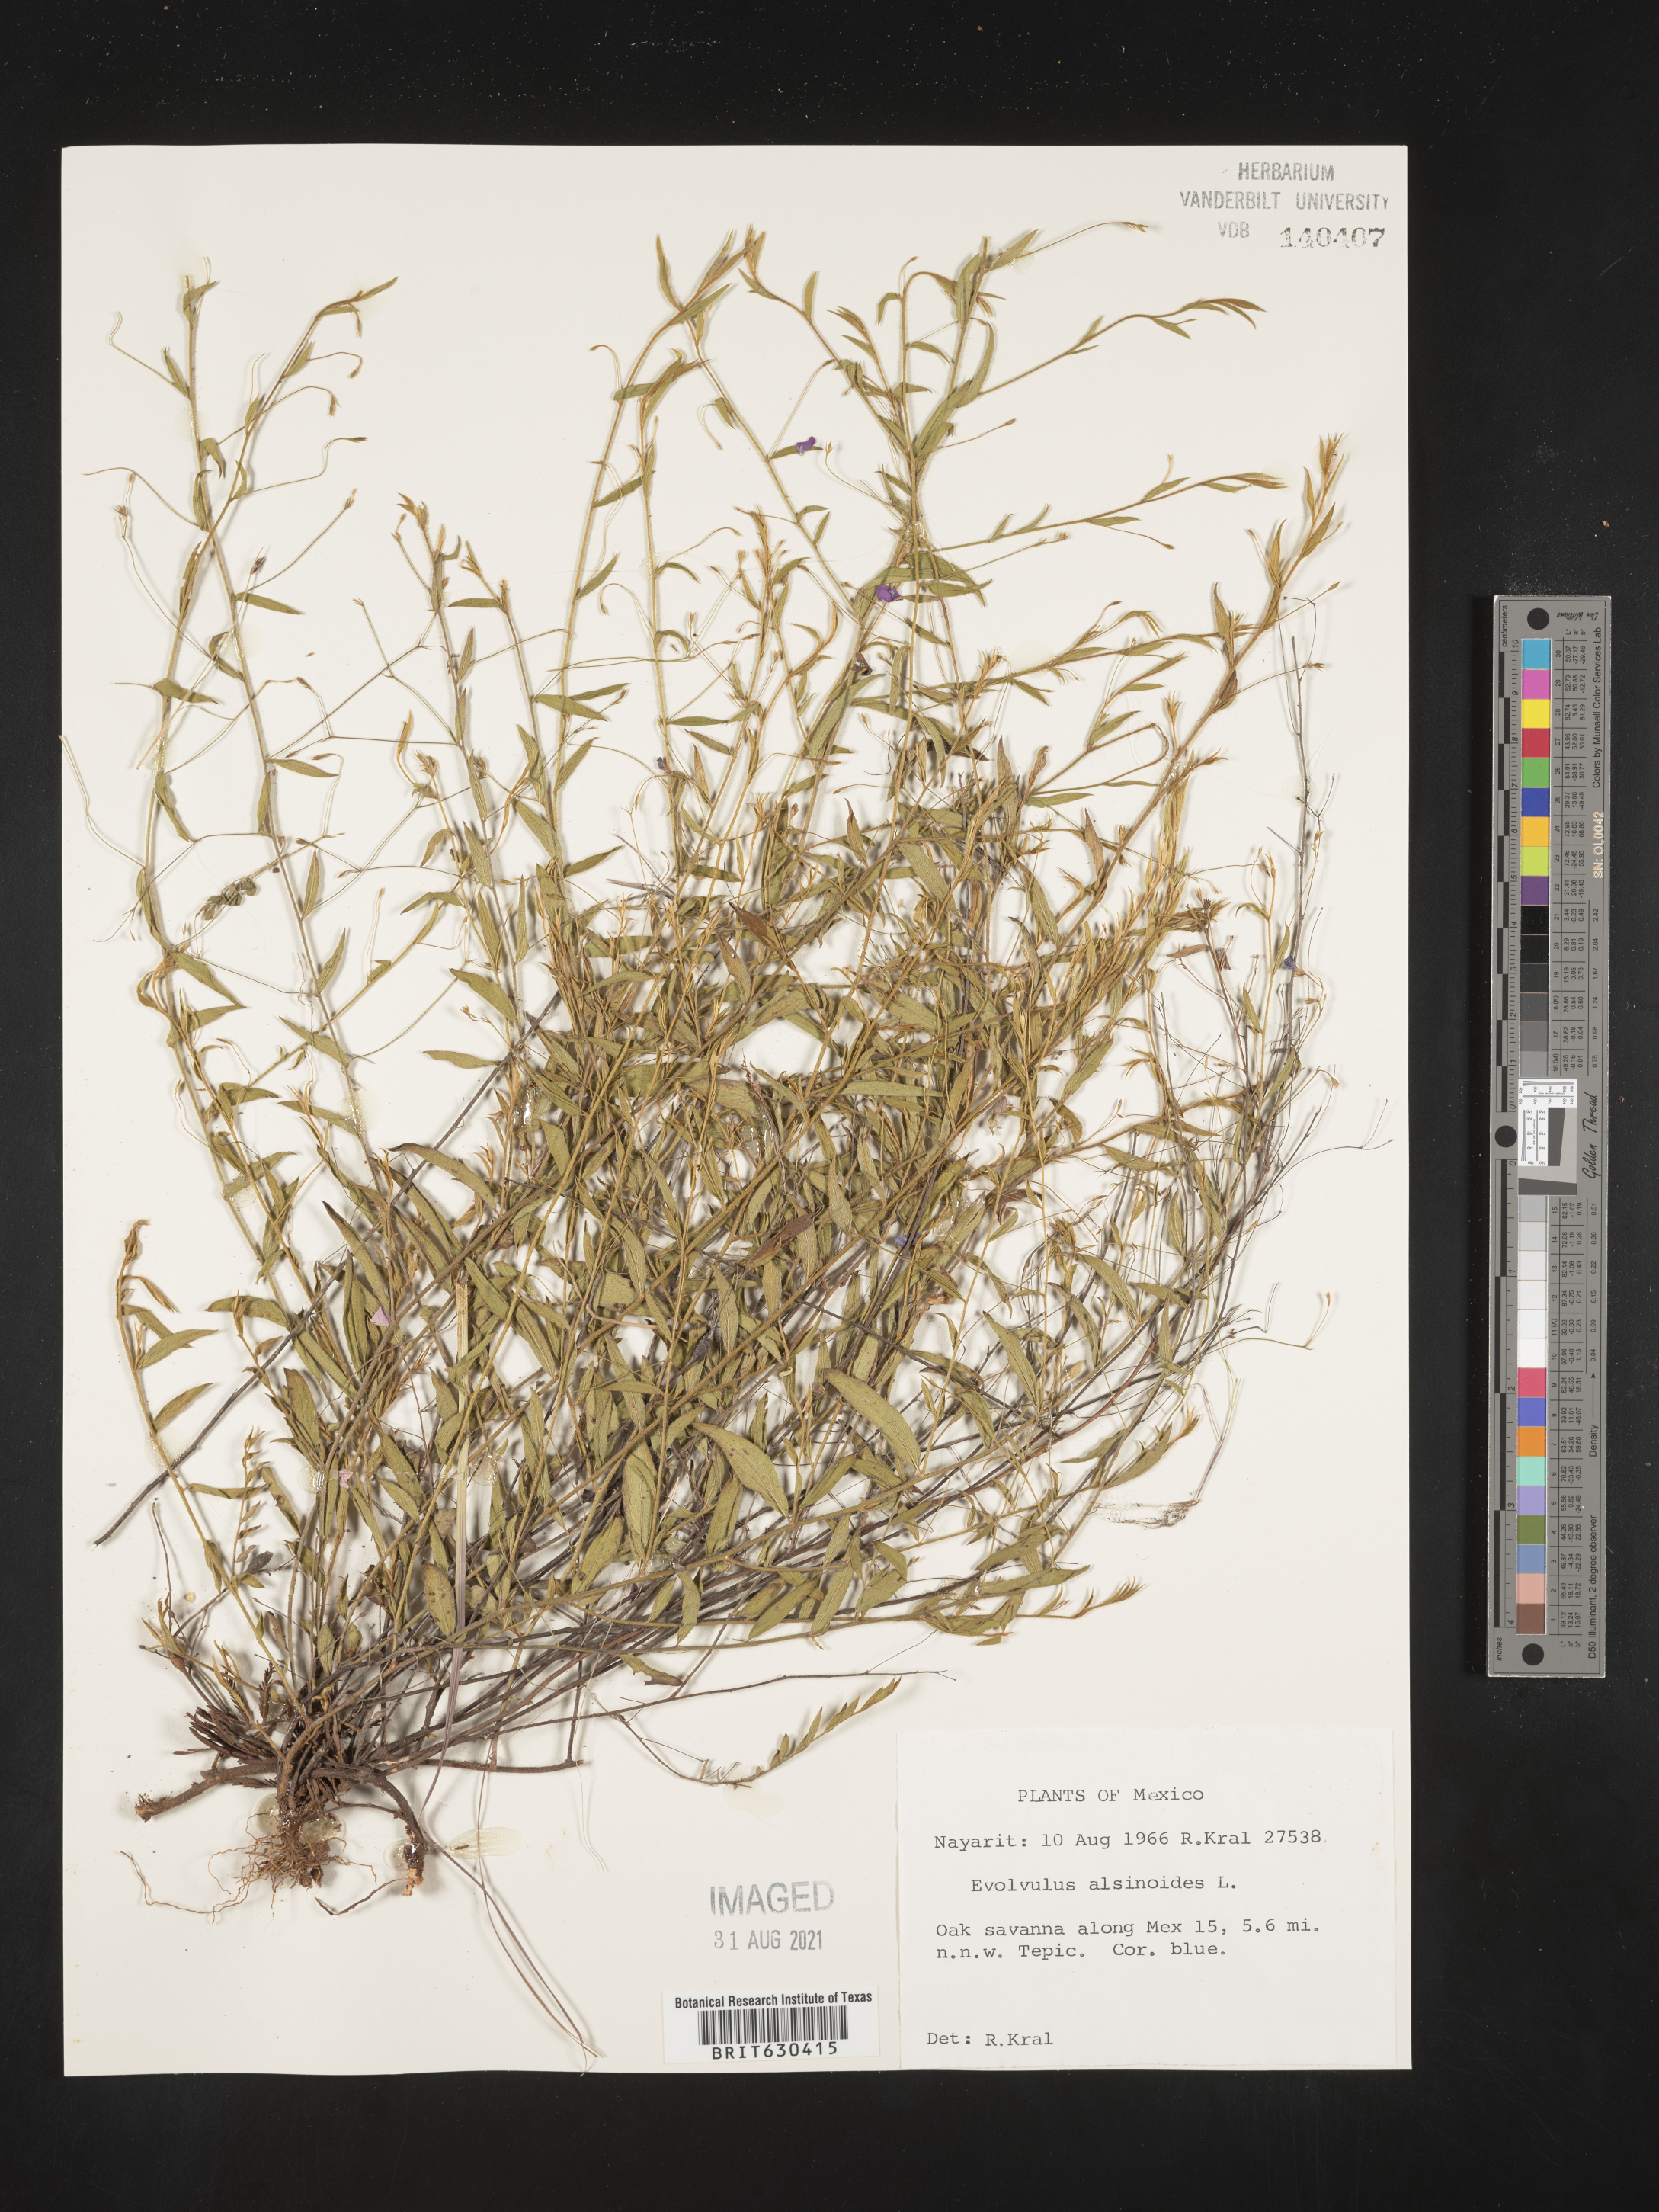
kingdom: Plantae
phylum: Tracheophyta
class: Magnoliopsida
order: Solanales
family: Convolvulaceae
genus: Evolvulus
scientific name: Evolvulus
